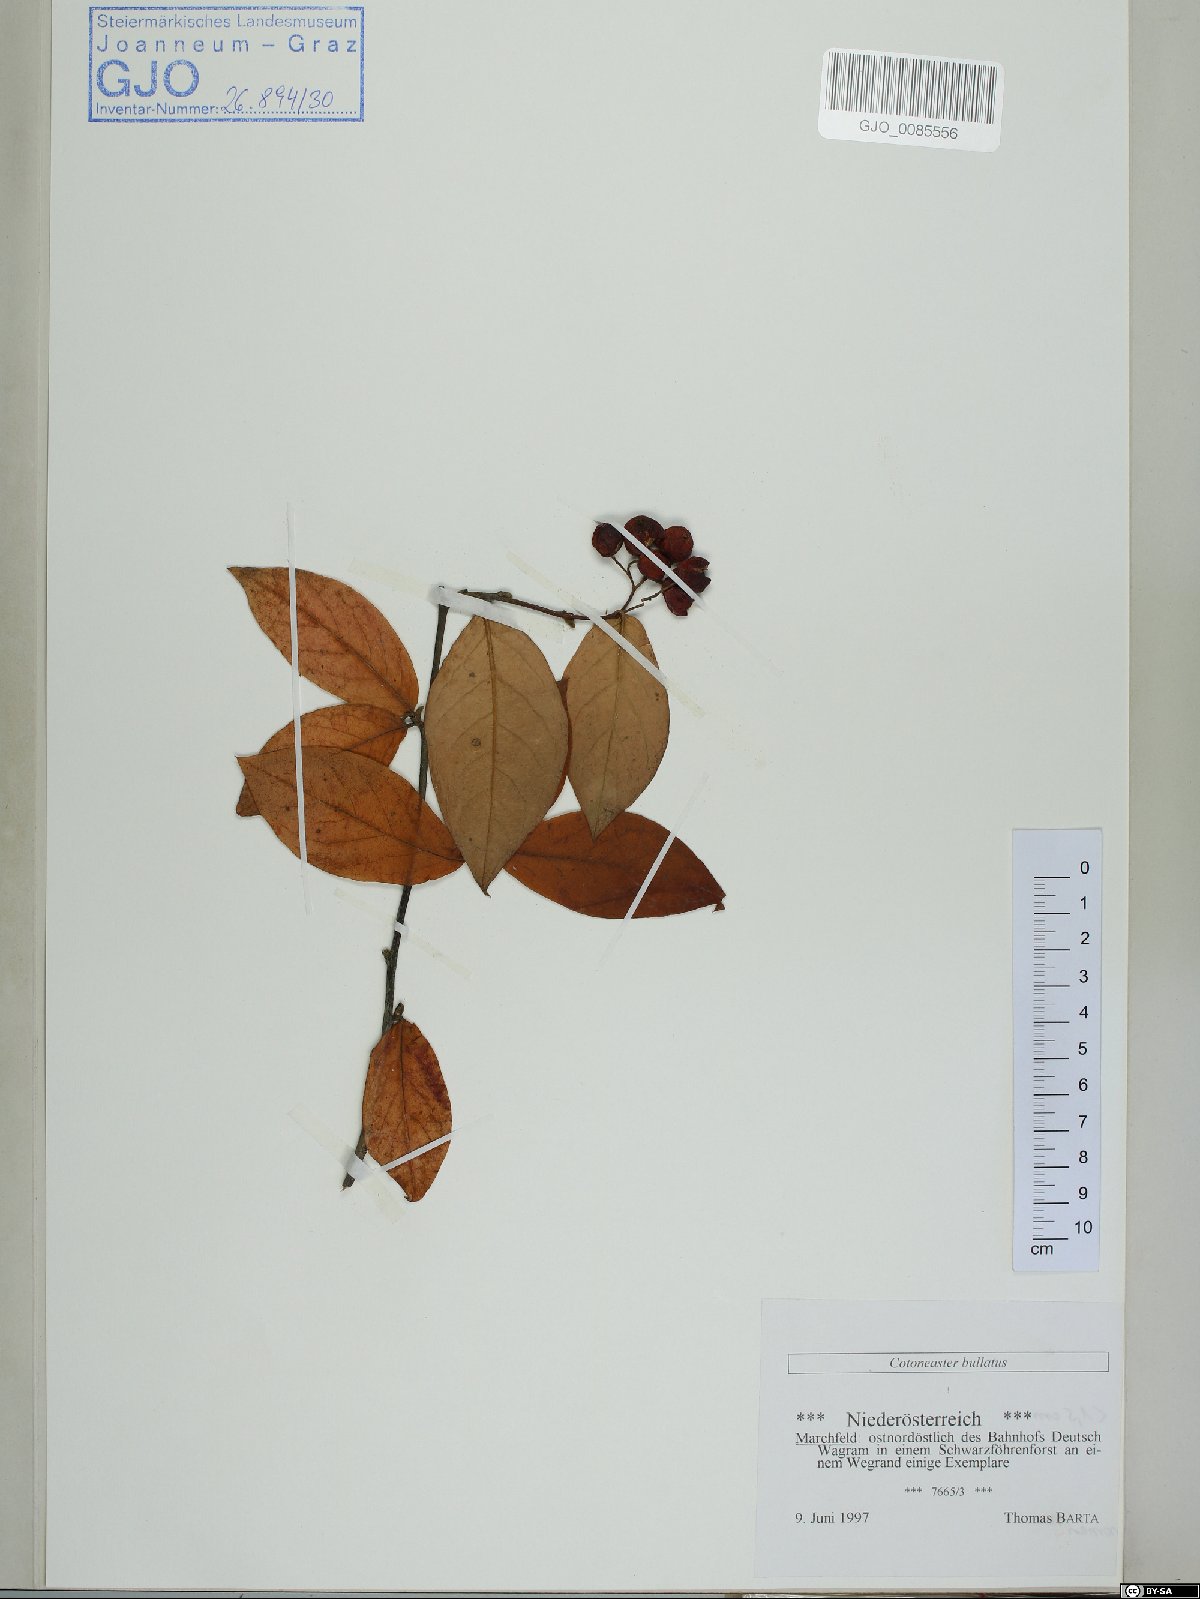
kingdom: Plantae
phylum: Tracheophyta
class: Magnoliopsida
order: Rosales
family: Rosaceae
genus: Cotoneaster
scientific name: Cotoneaster bullatus
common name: Hollyberry cotoneaster
